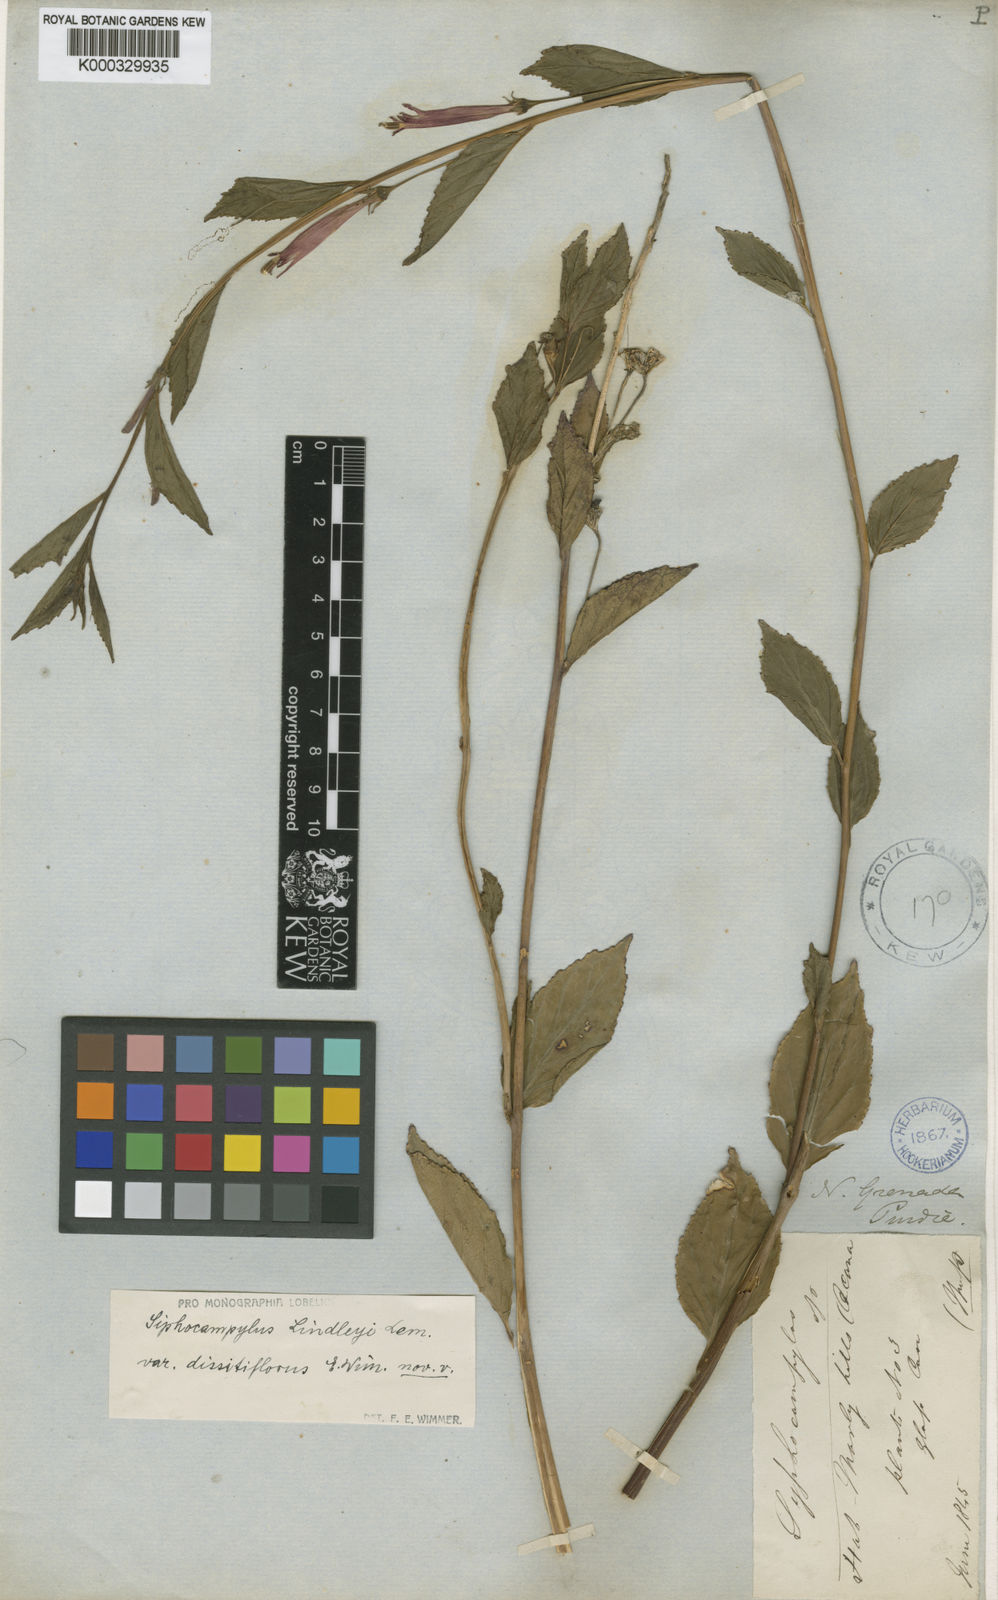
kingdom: Plantae
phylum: Tracheophyta
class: Magnoliopsida
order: Asterales
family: Campanulaceae
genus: Siphocampylus
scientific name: Siphocampylus lindleyi
